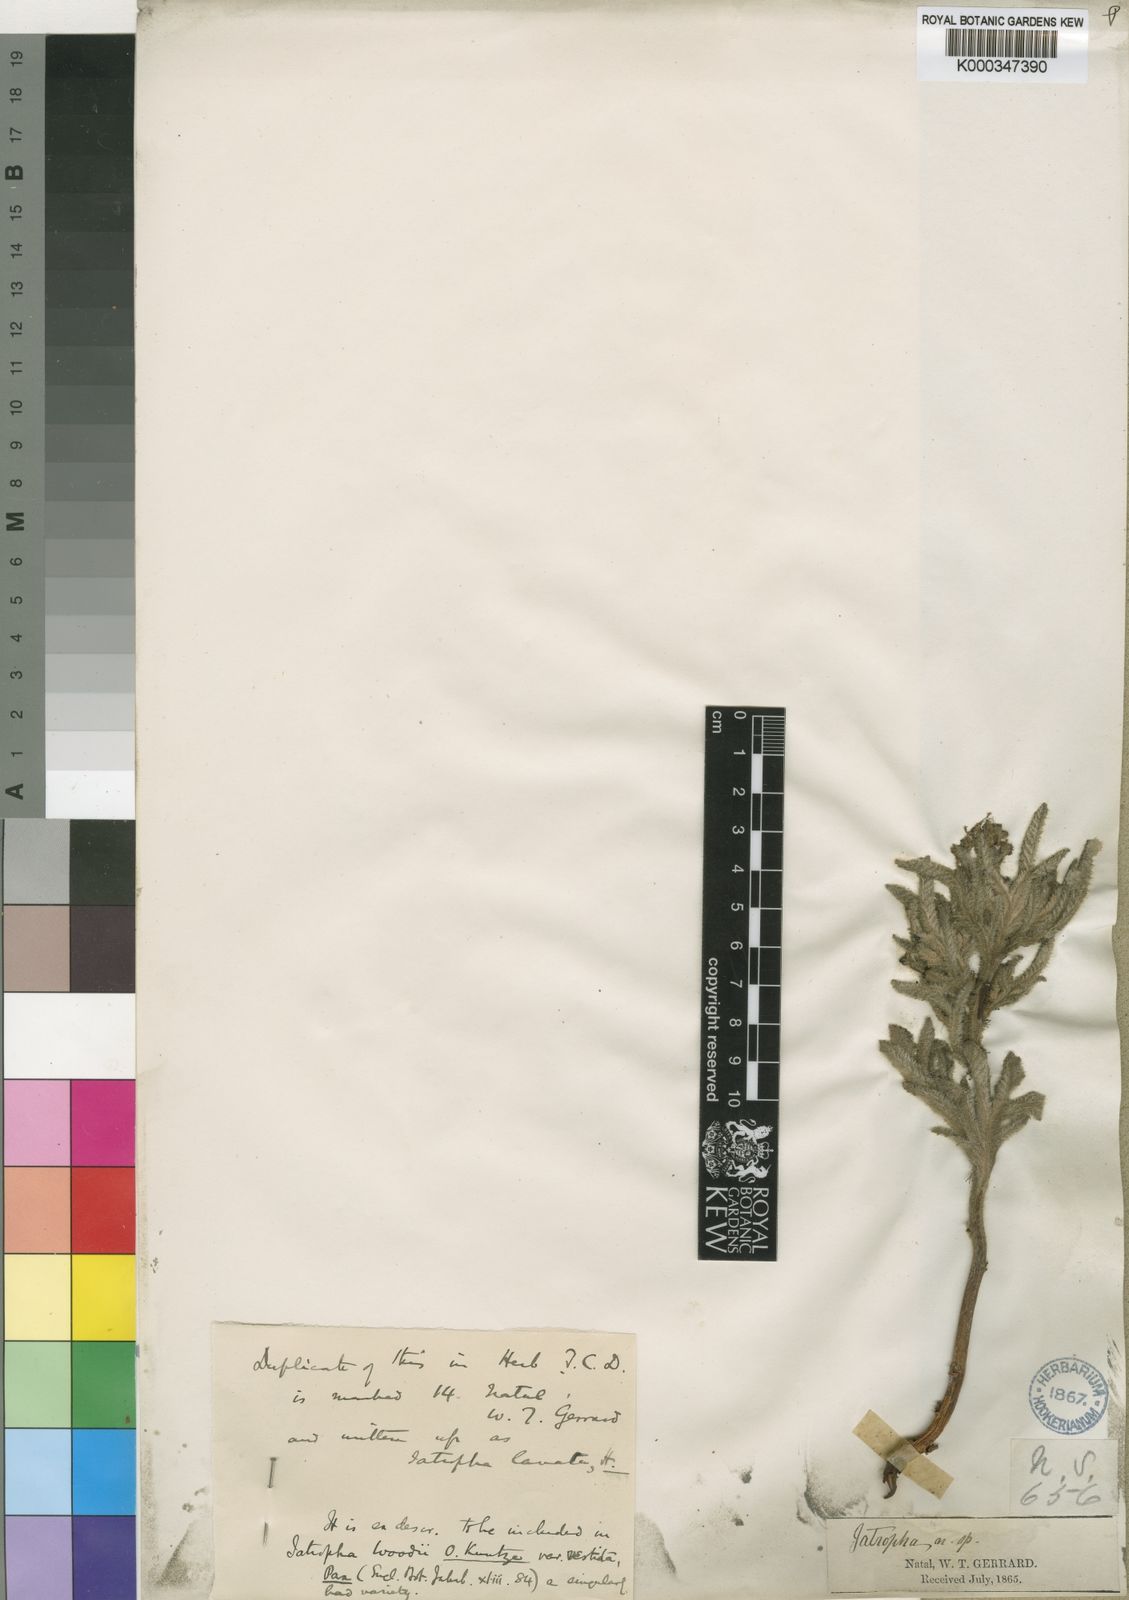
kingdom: Plantae
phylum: Tracheophyta
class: Magnoliopsida
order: Malpighiales
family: Euphorbiaceae
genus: Jatropha
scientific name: Jatropha woodii
